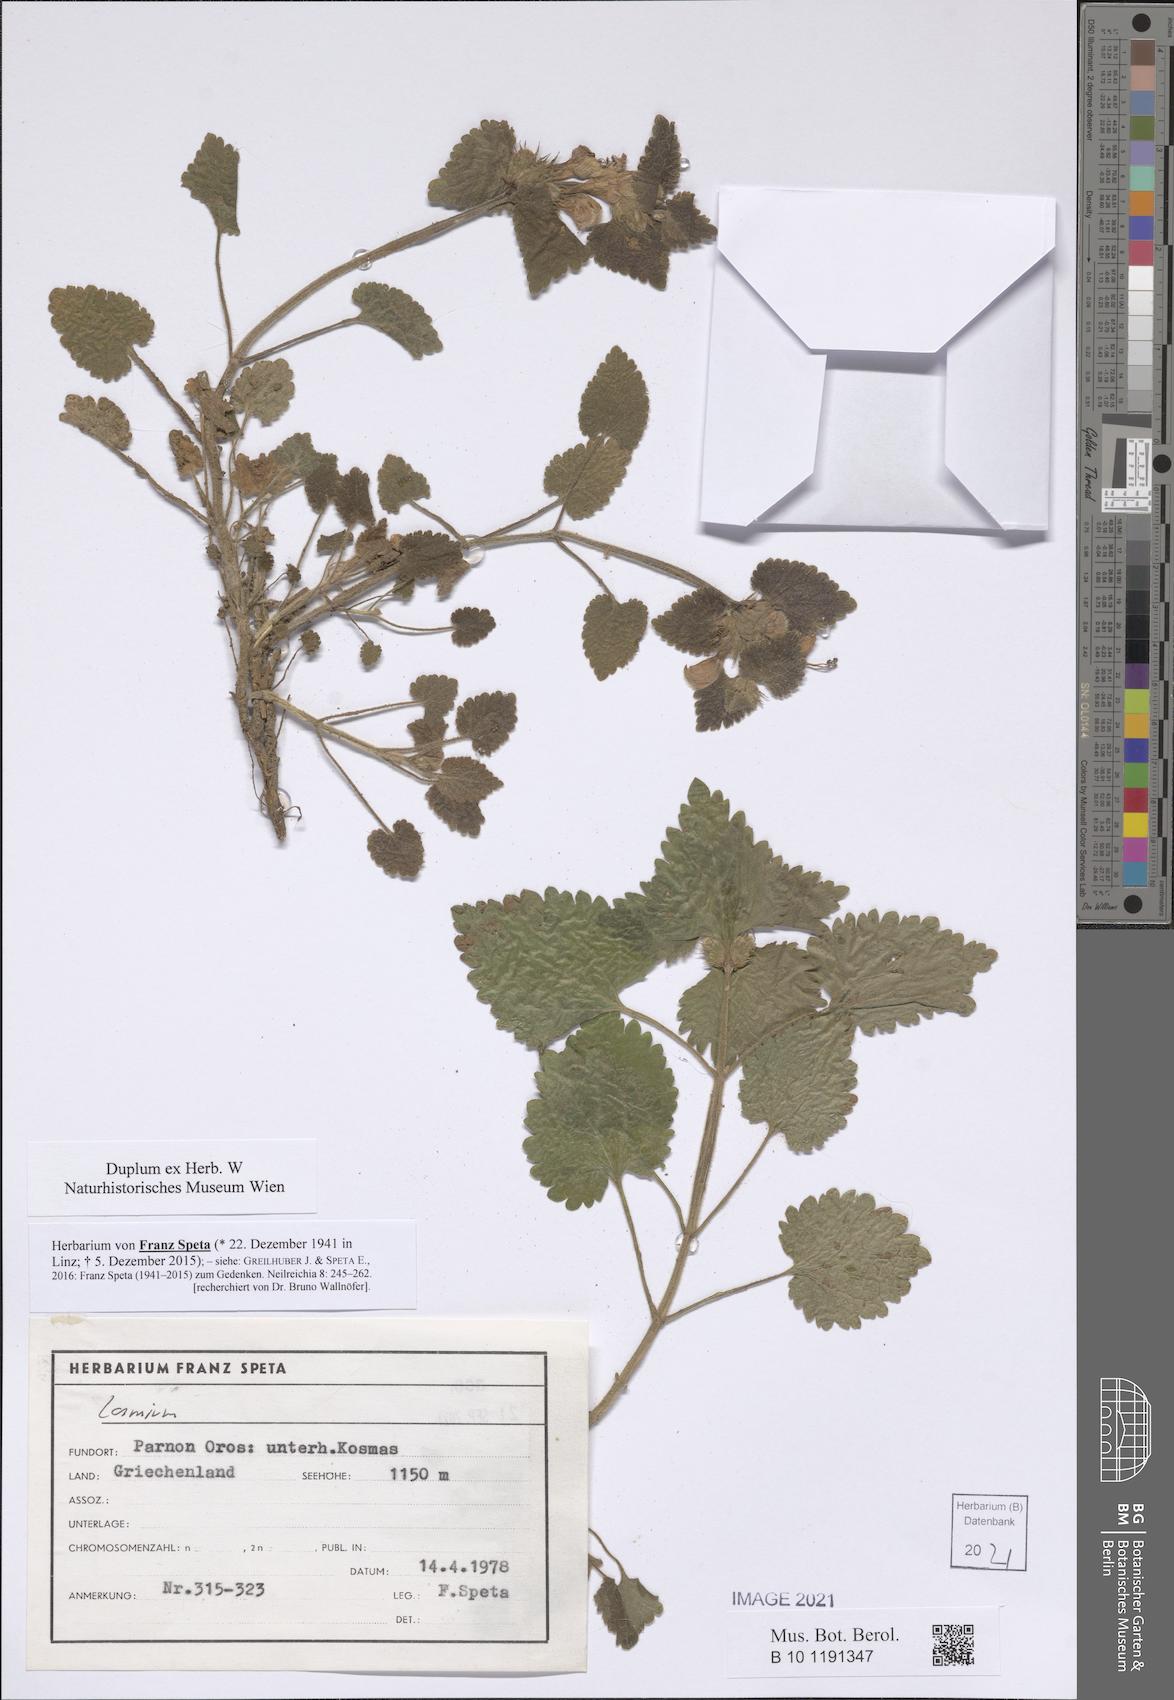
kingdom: Plantae
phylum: Tracheophyta
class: Magnoliopsida
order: Lamiales
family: Lamiaceae
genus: Lamium
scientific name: Lamium
